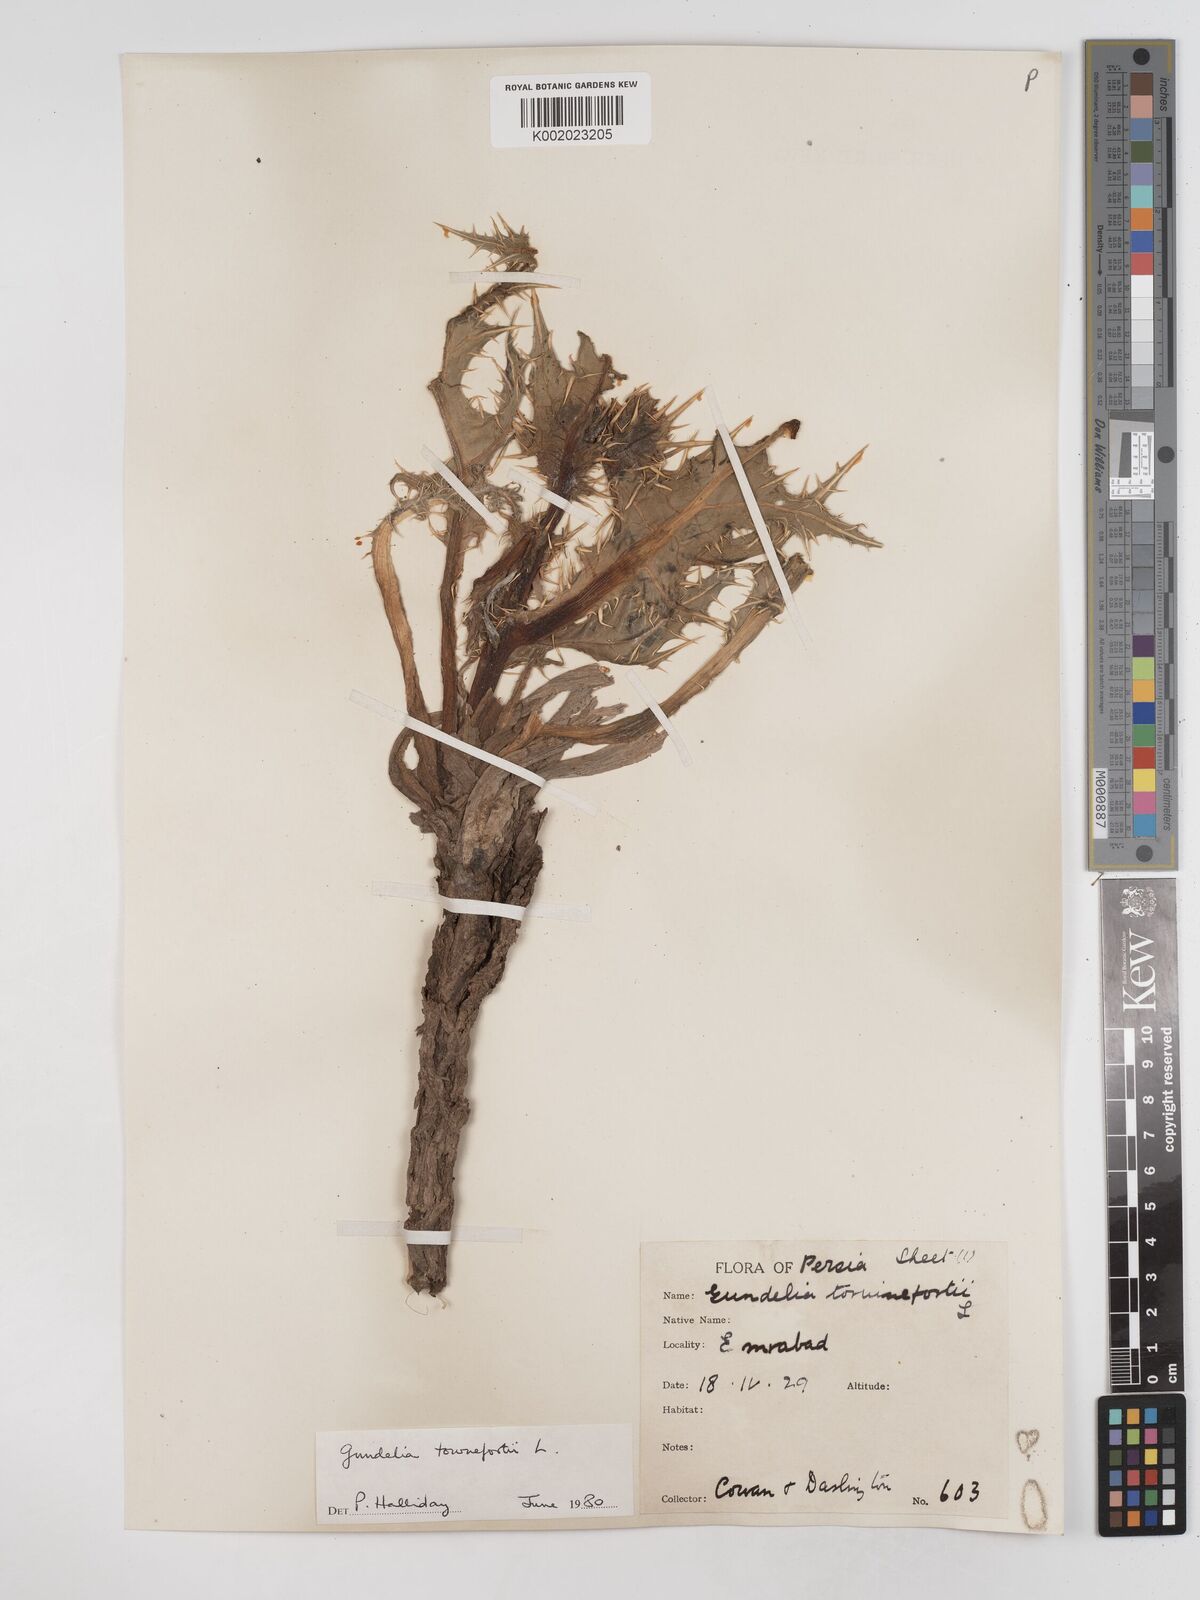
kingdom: Plantae
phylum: Tracheophyta
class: Magnoliopsida
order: Asterales
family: Asteraceae
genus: Gundelia
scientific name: Gundelia tournefortii
